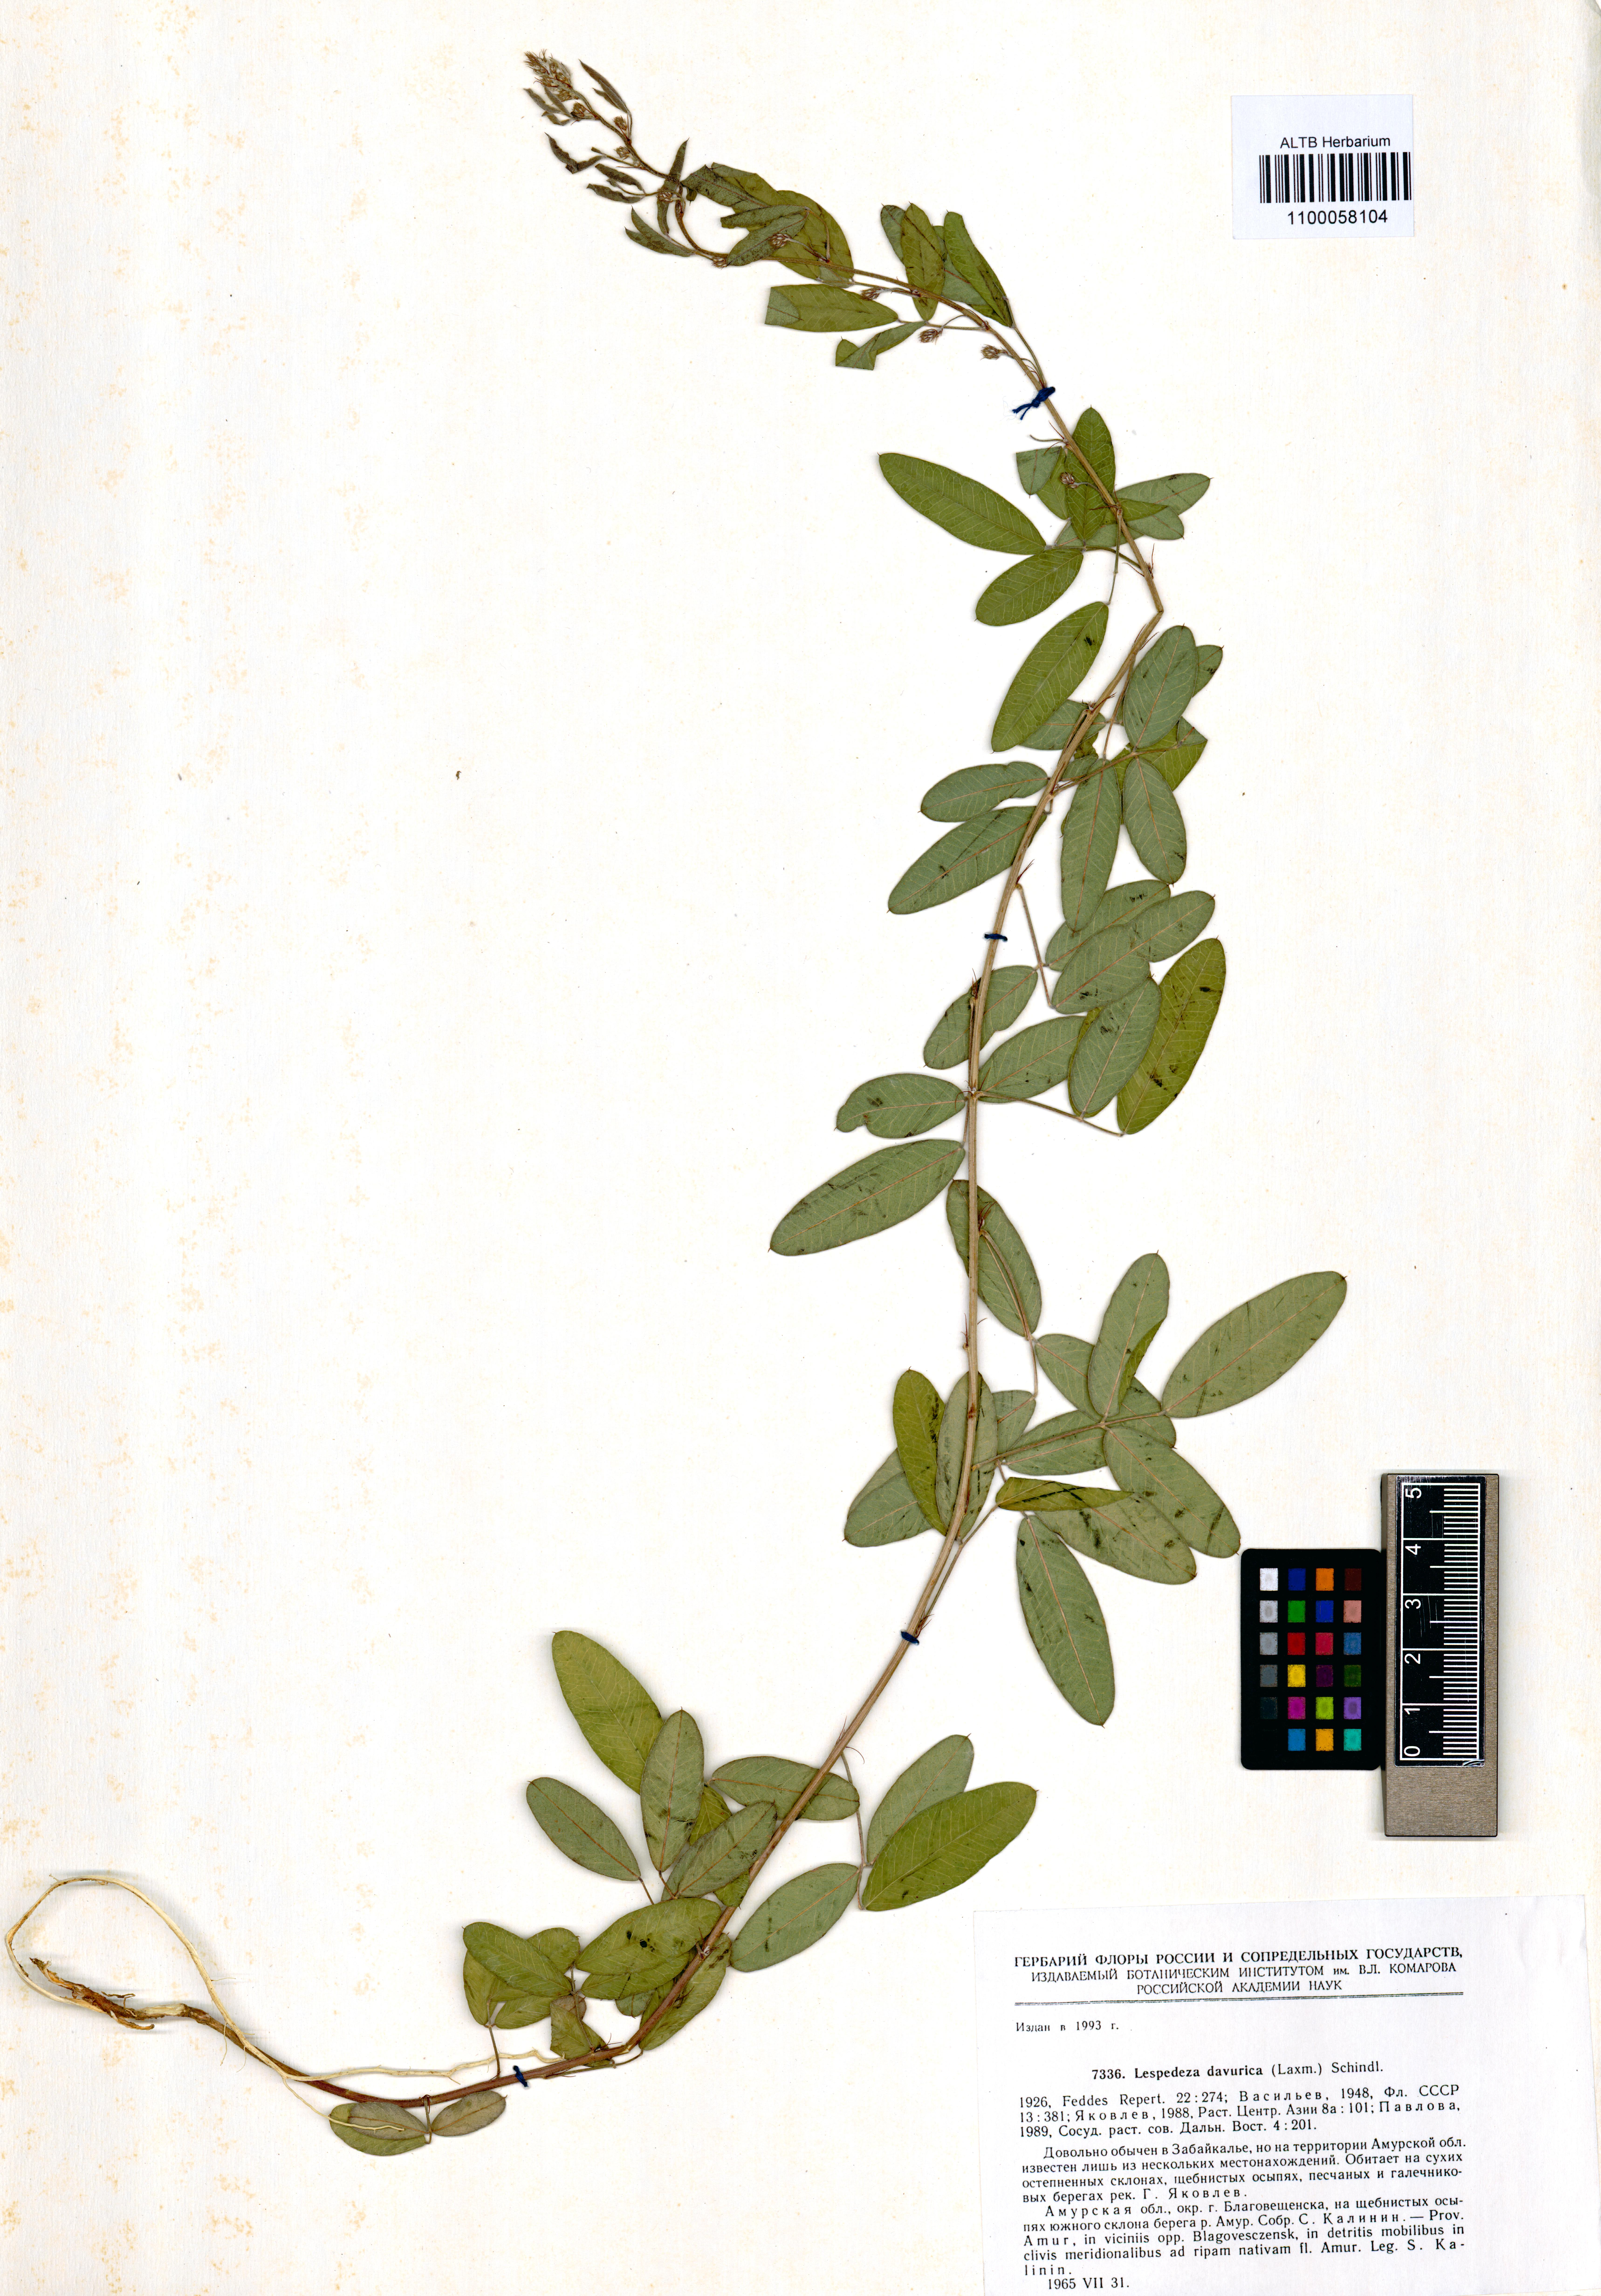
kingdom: Plantae
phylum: Tracheophyta
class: Magnoliopsida
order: Fabales
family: Fabaceae
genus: Lespedeza
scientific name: Lespedeza daurica
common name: Dahurian lespedeza
